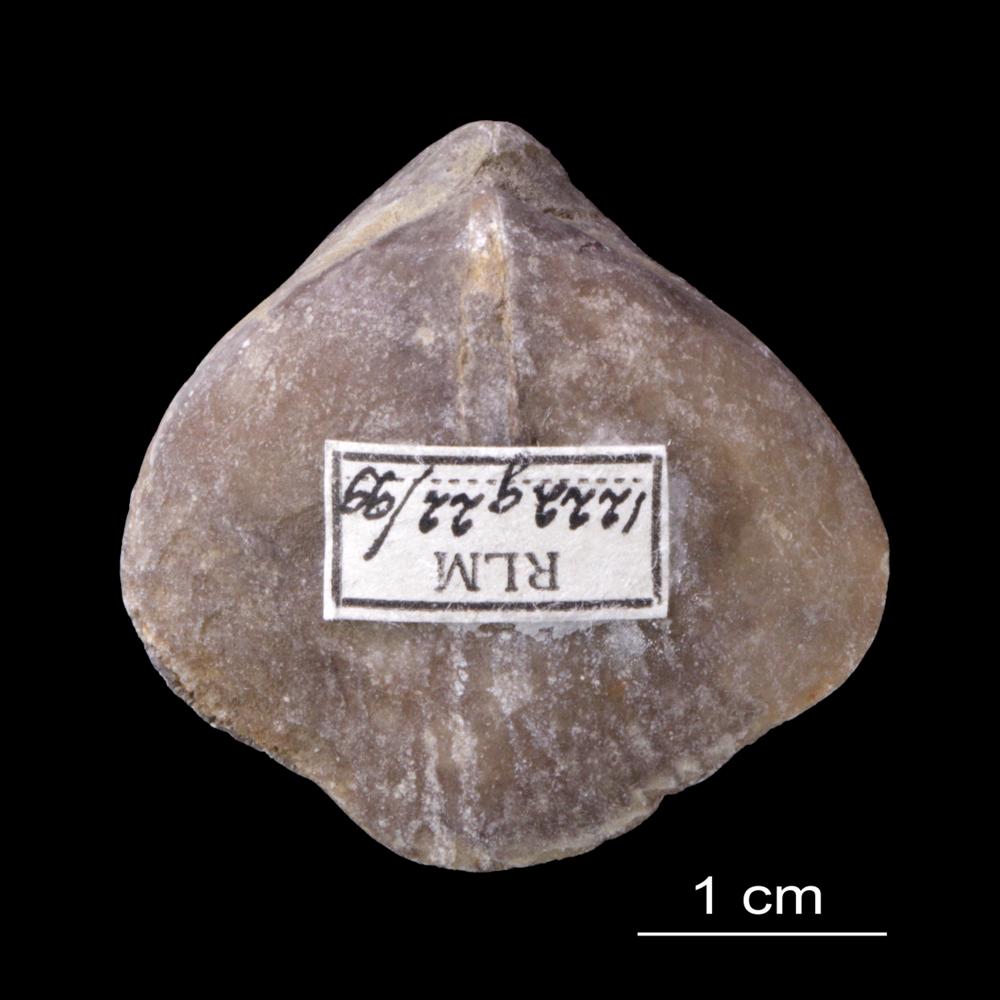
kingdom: Animalia
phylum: Brachiopoda
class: Rhynchonellata
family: Pentameridae
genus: Rhipidium
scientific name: Rhipidium Pentamerus tenuistratus
